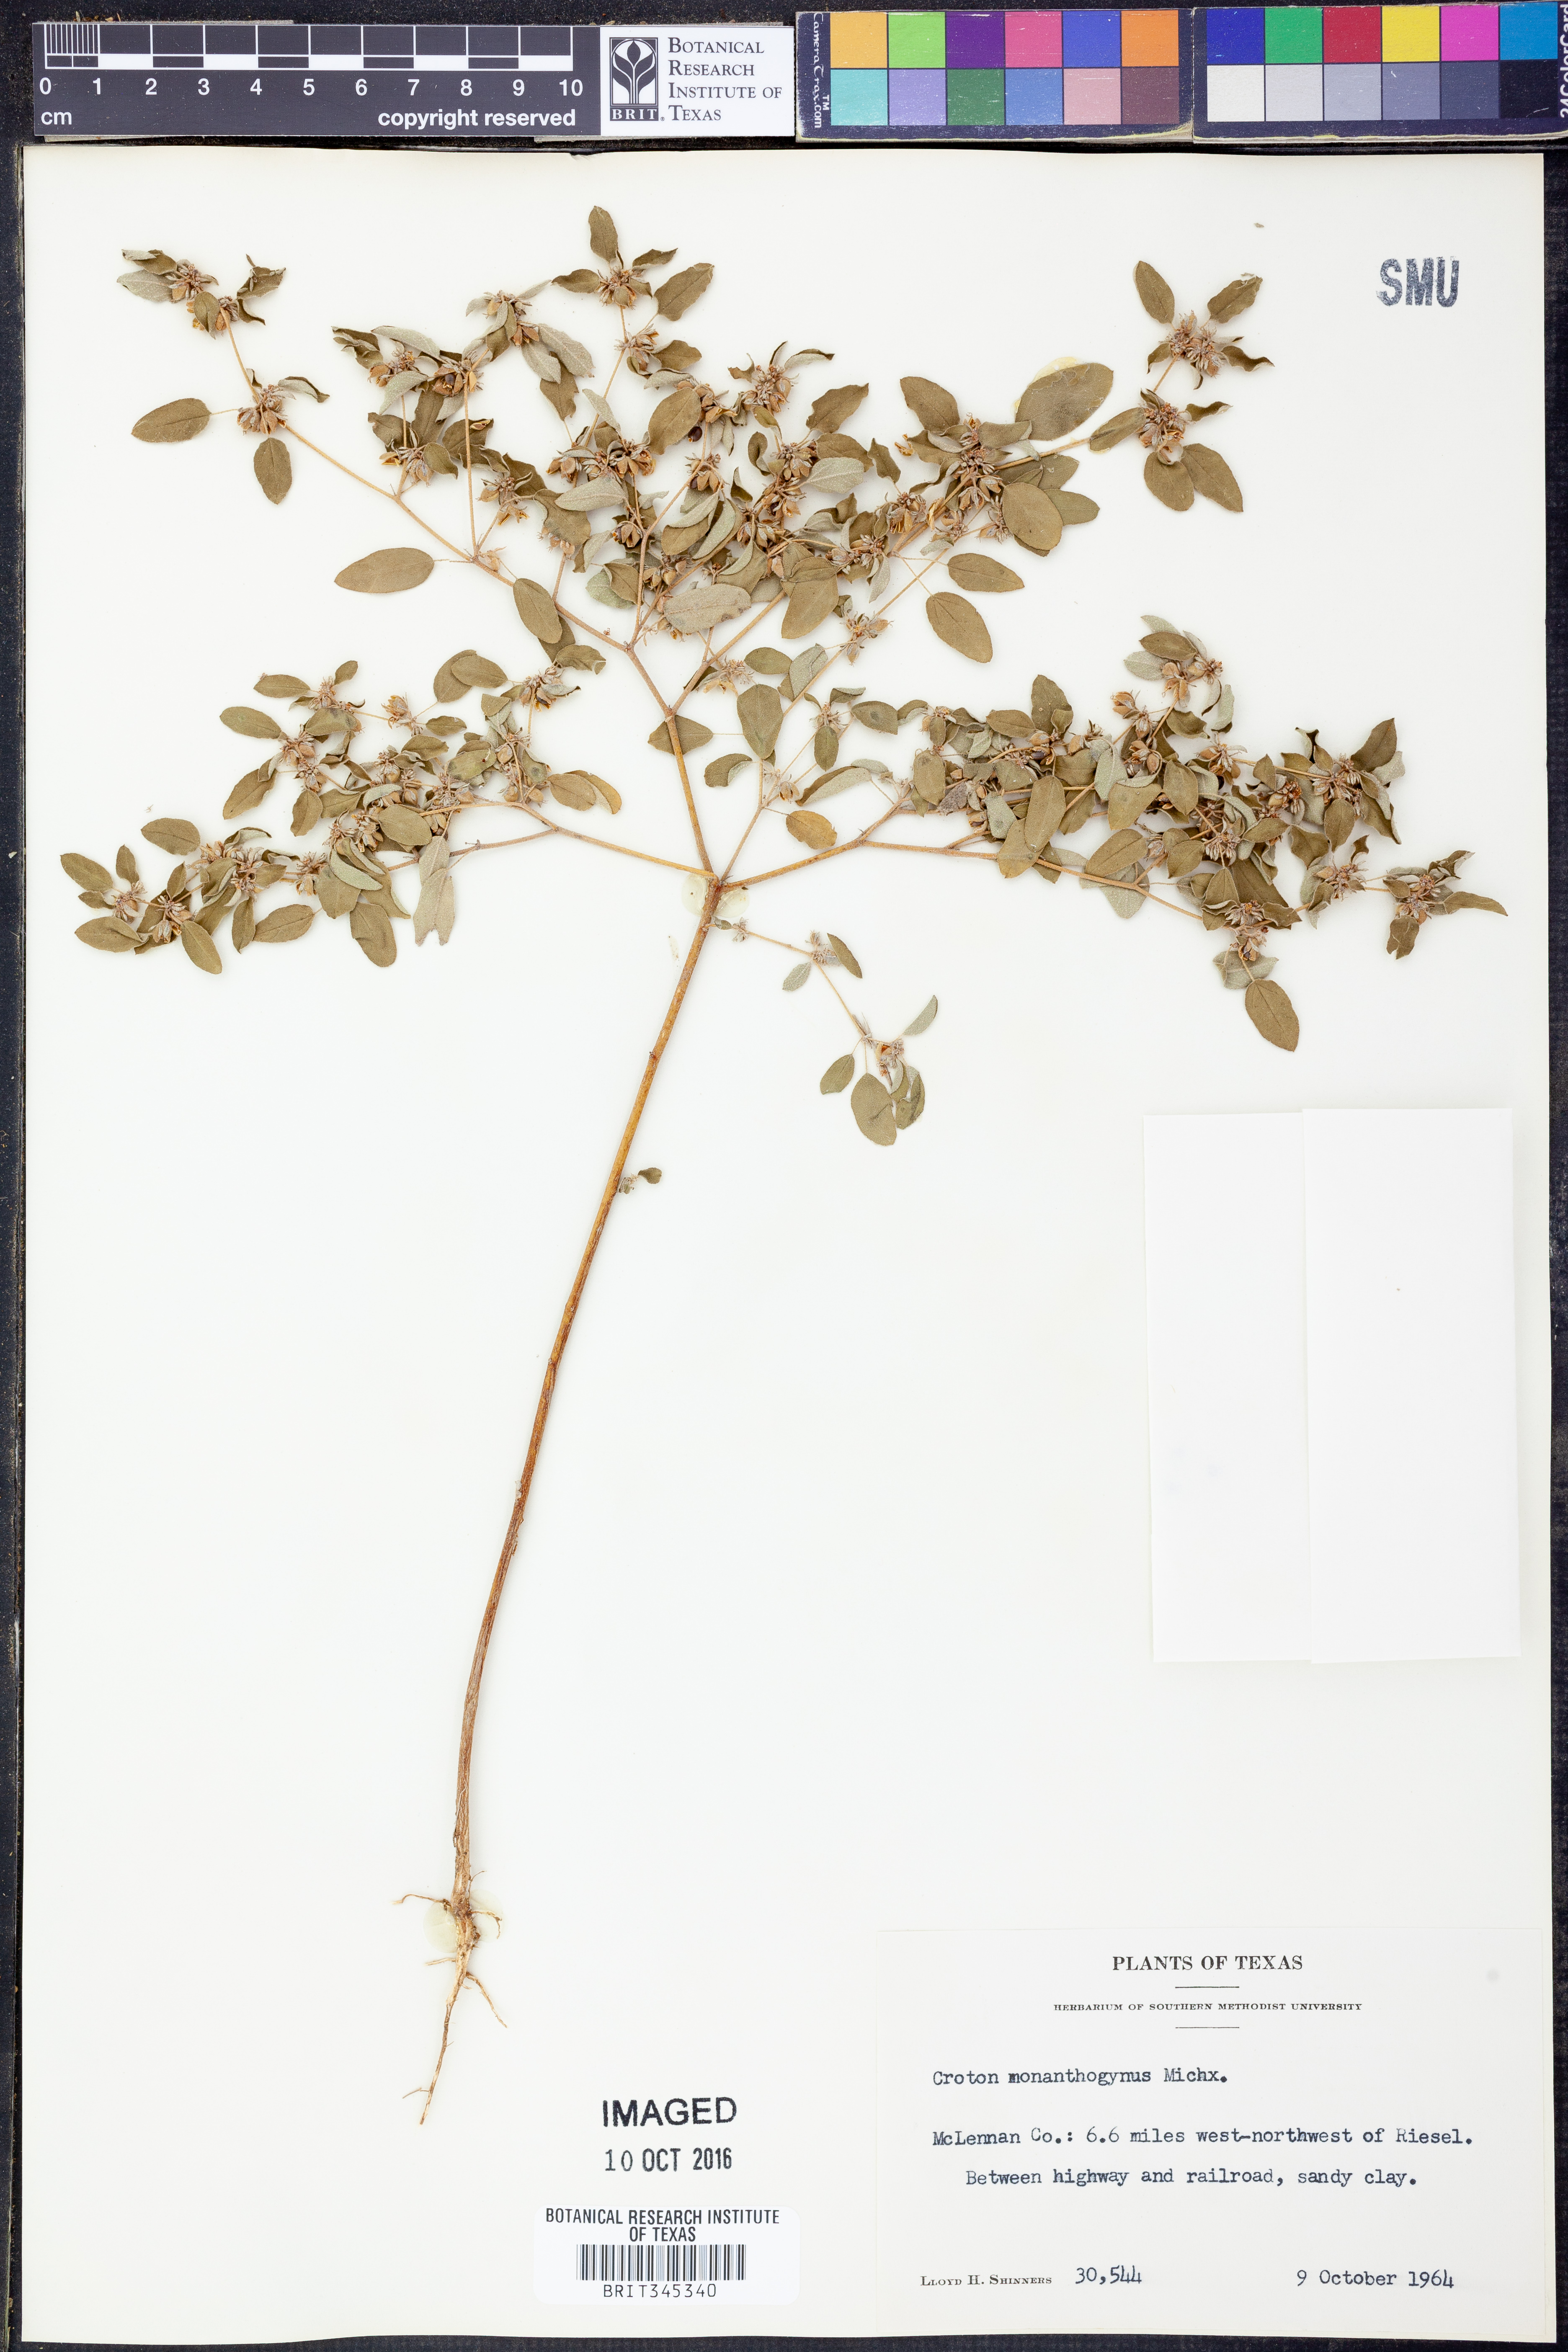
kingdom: Plantae
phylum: Tracheophyta
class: Magnoliopsida
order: Malpighiales
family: Euphorbiaceae
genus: Croton
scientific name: Croton monanthogynus
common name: One-seed croton
